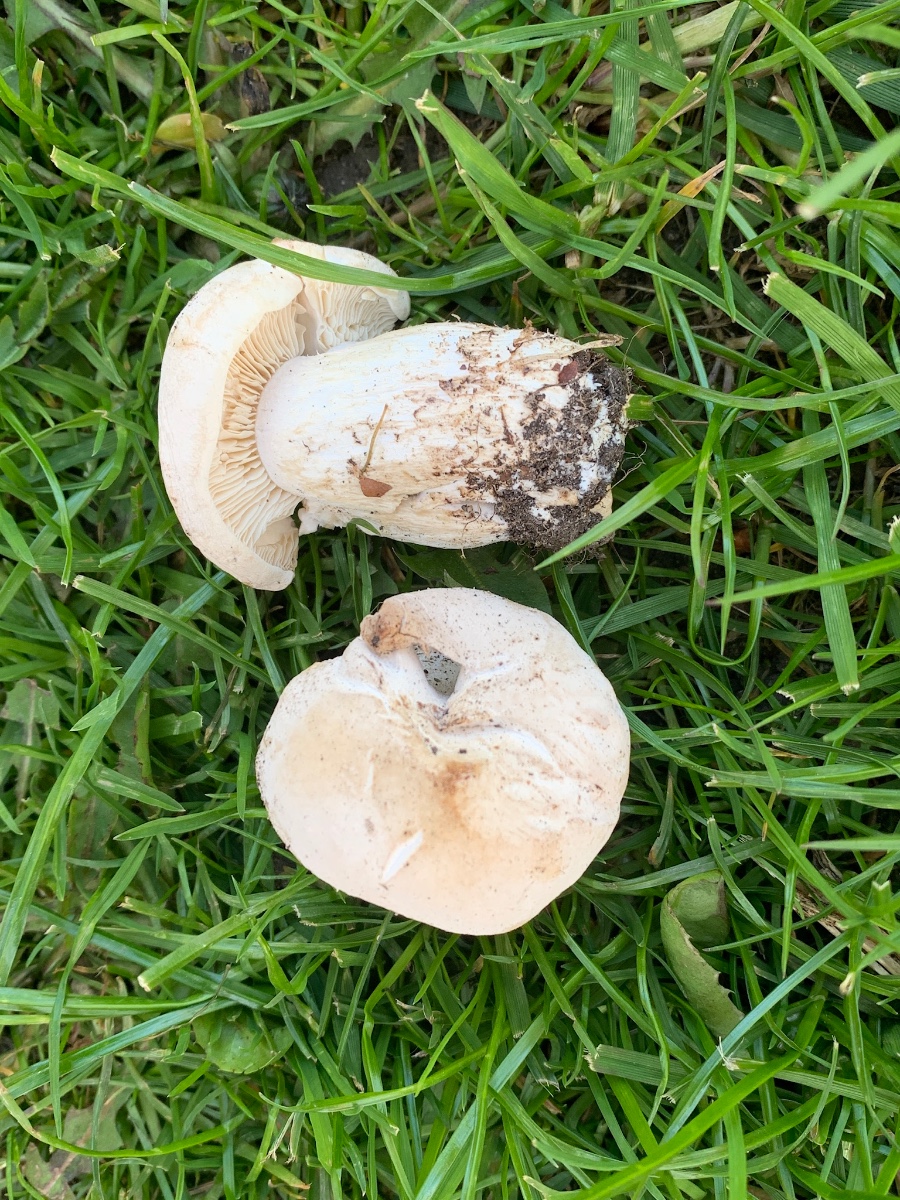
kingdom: Fungi
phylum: Basidiomycota
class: Agaricomycetes
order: Agaricales
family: Lyophyllaceae
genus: Calocybe
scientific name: Calocybe gambosa
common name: vårmusseron
